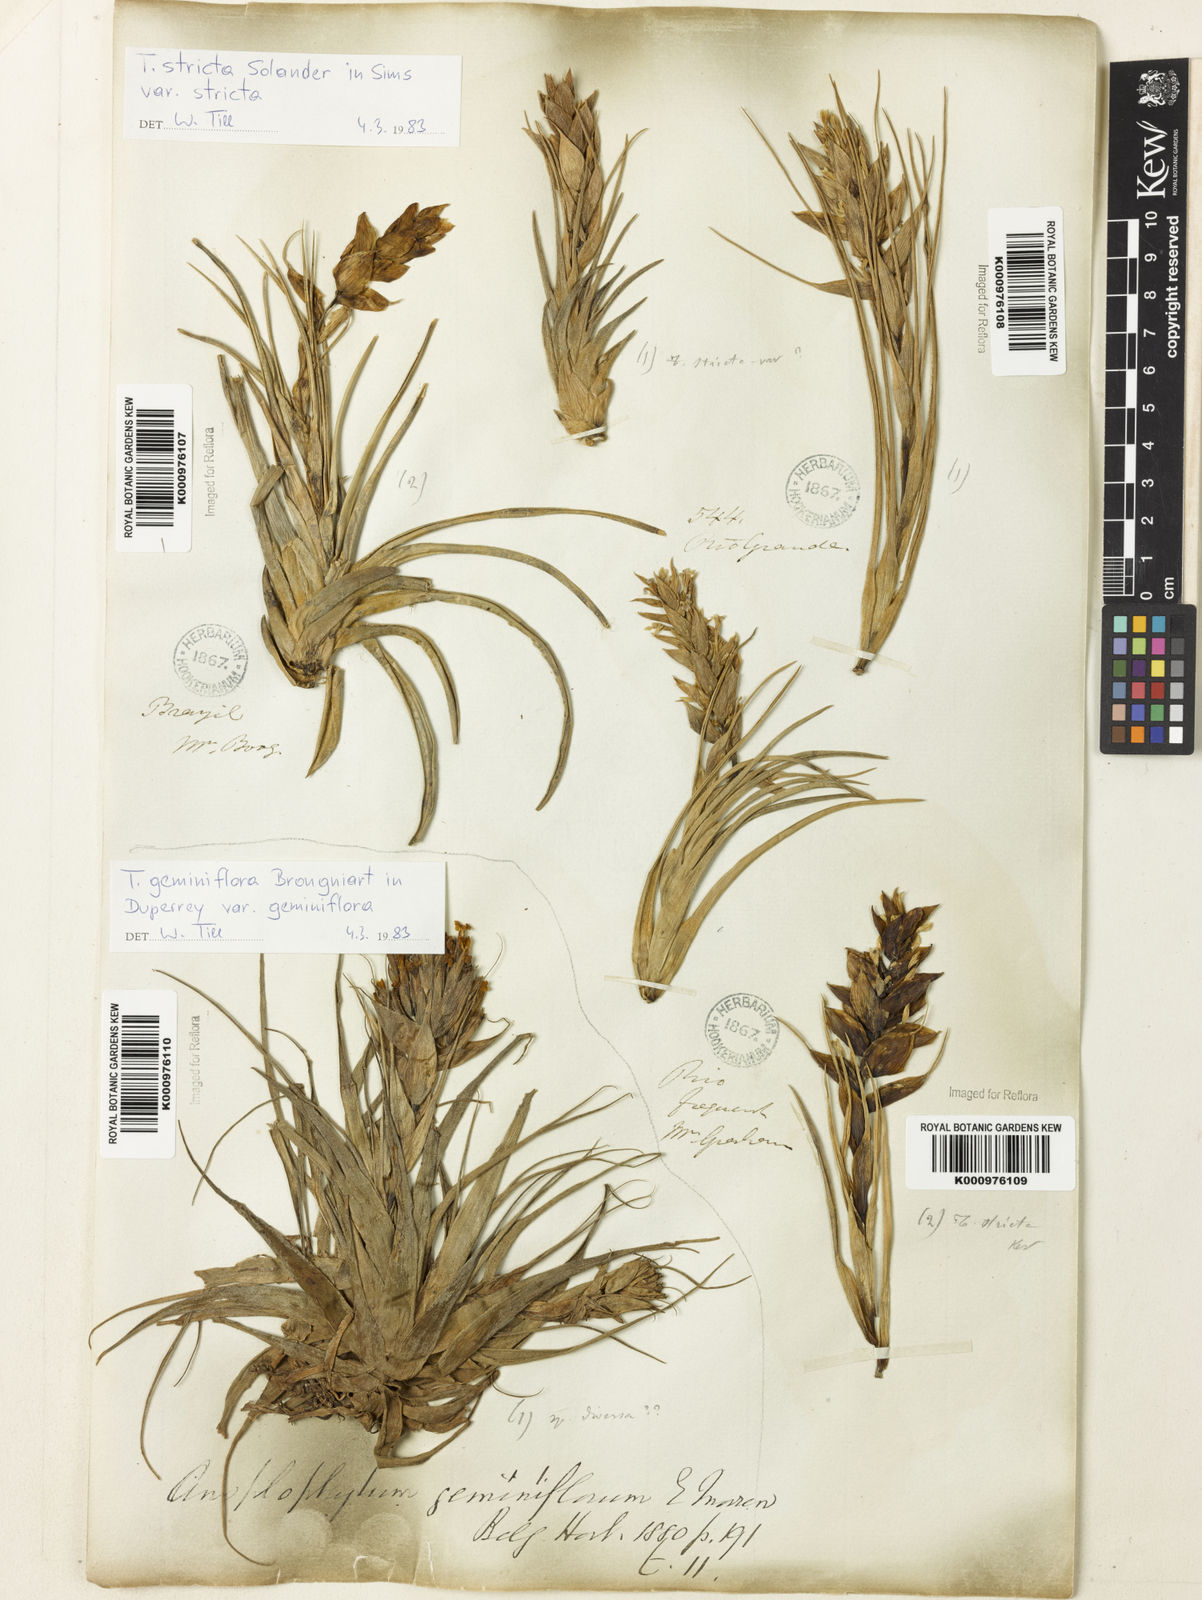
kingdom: Plantae
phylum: Tracheophyta
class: Liliopsida
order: Poales
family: Bromeliaceae
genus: Tillandsia
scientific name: Tillandsia stricta
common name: Airplant
